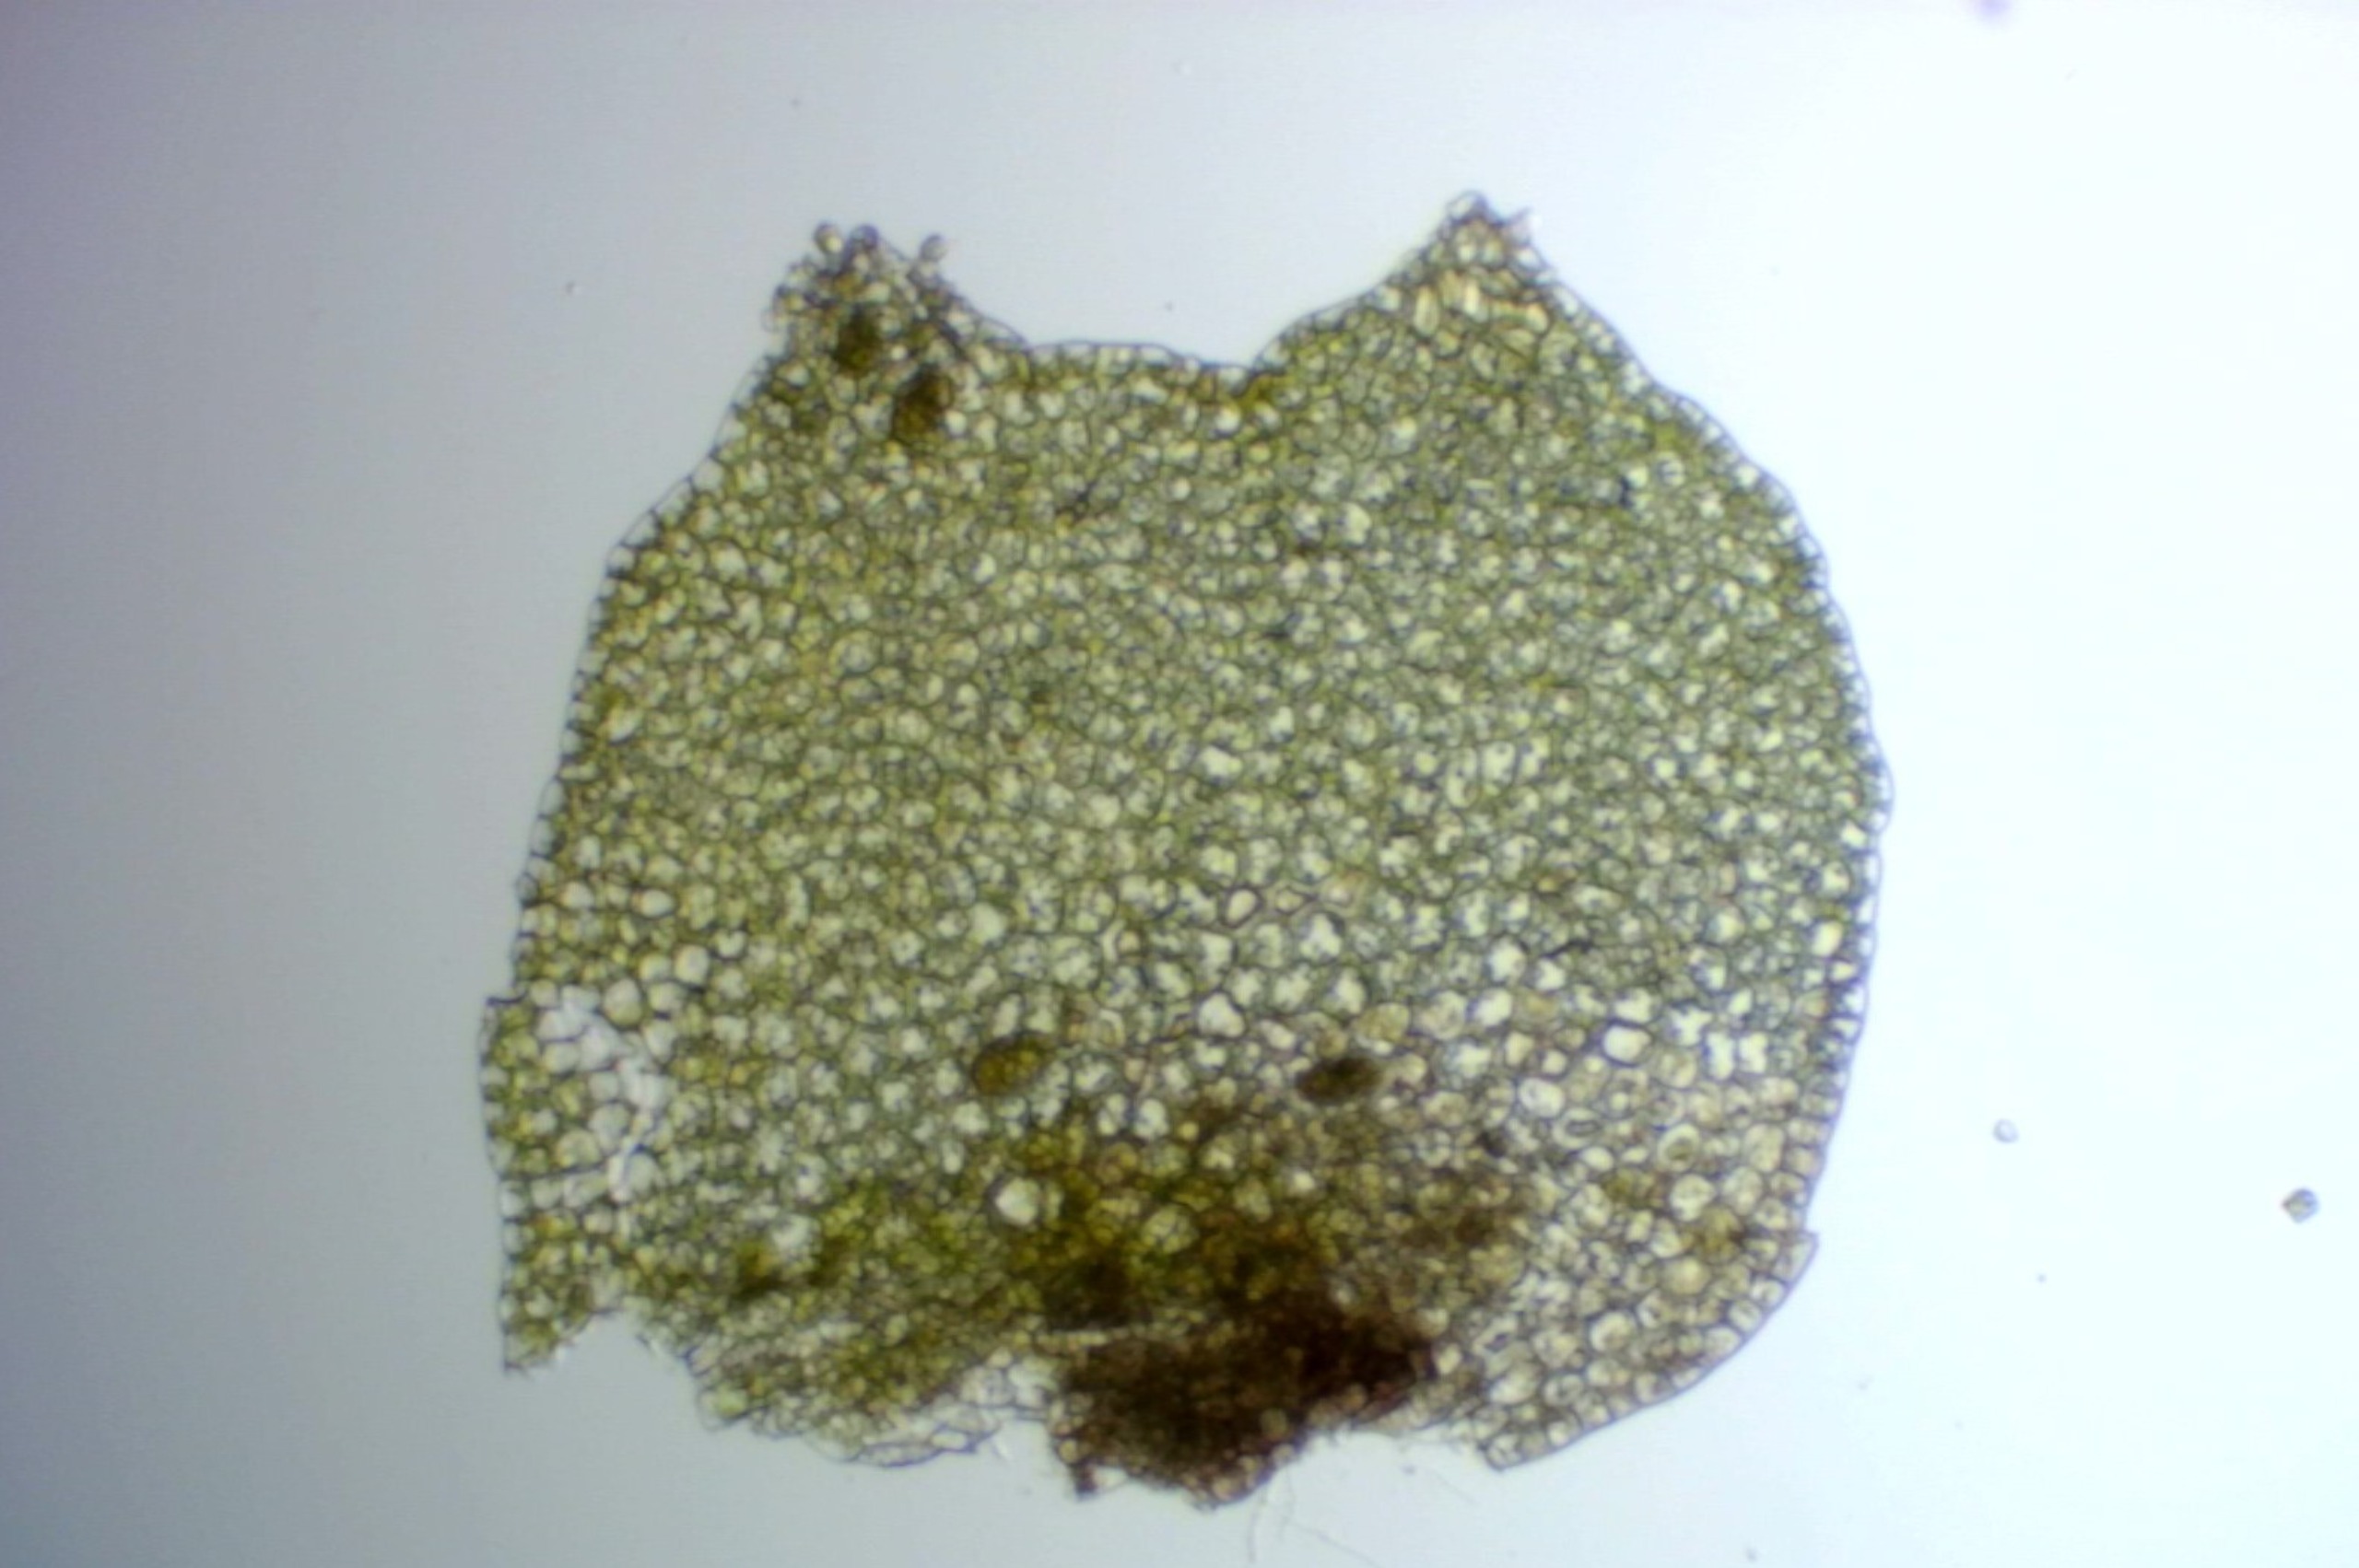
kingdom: Plantae
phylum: Marchantiophyta
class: Jungermanniopsida
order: Jungermanniales
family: Lophoziaceae
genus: Lophozia
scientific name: Lophozia ventricosa
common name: Grønkornet foldbæger
